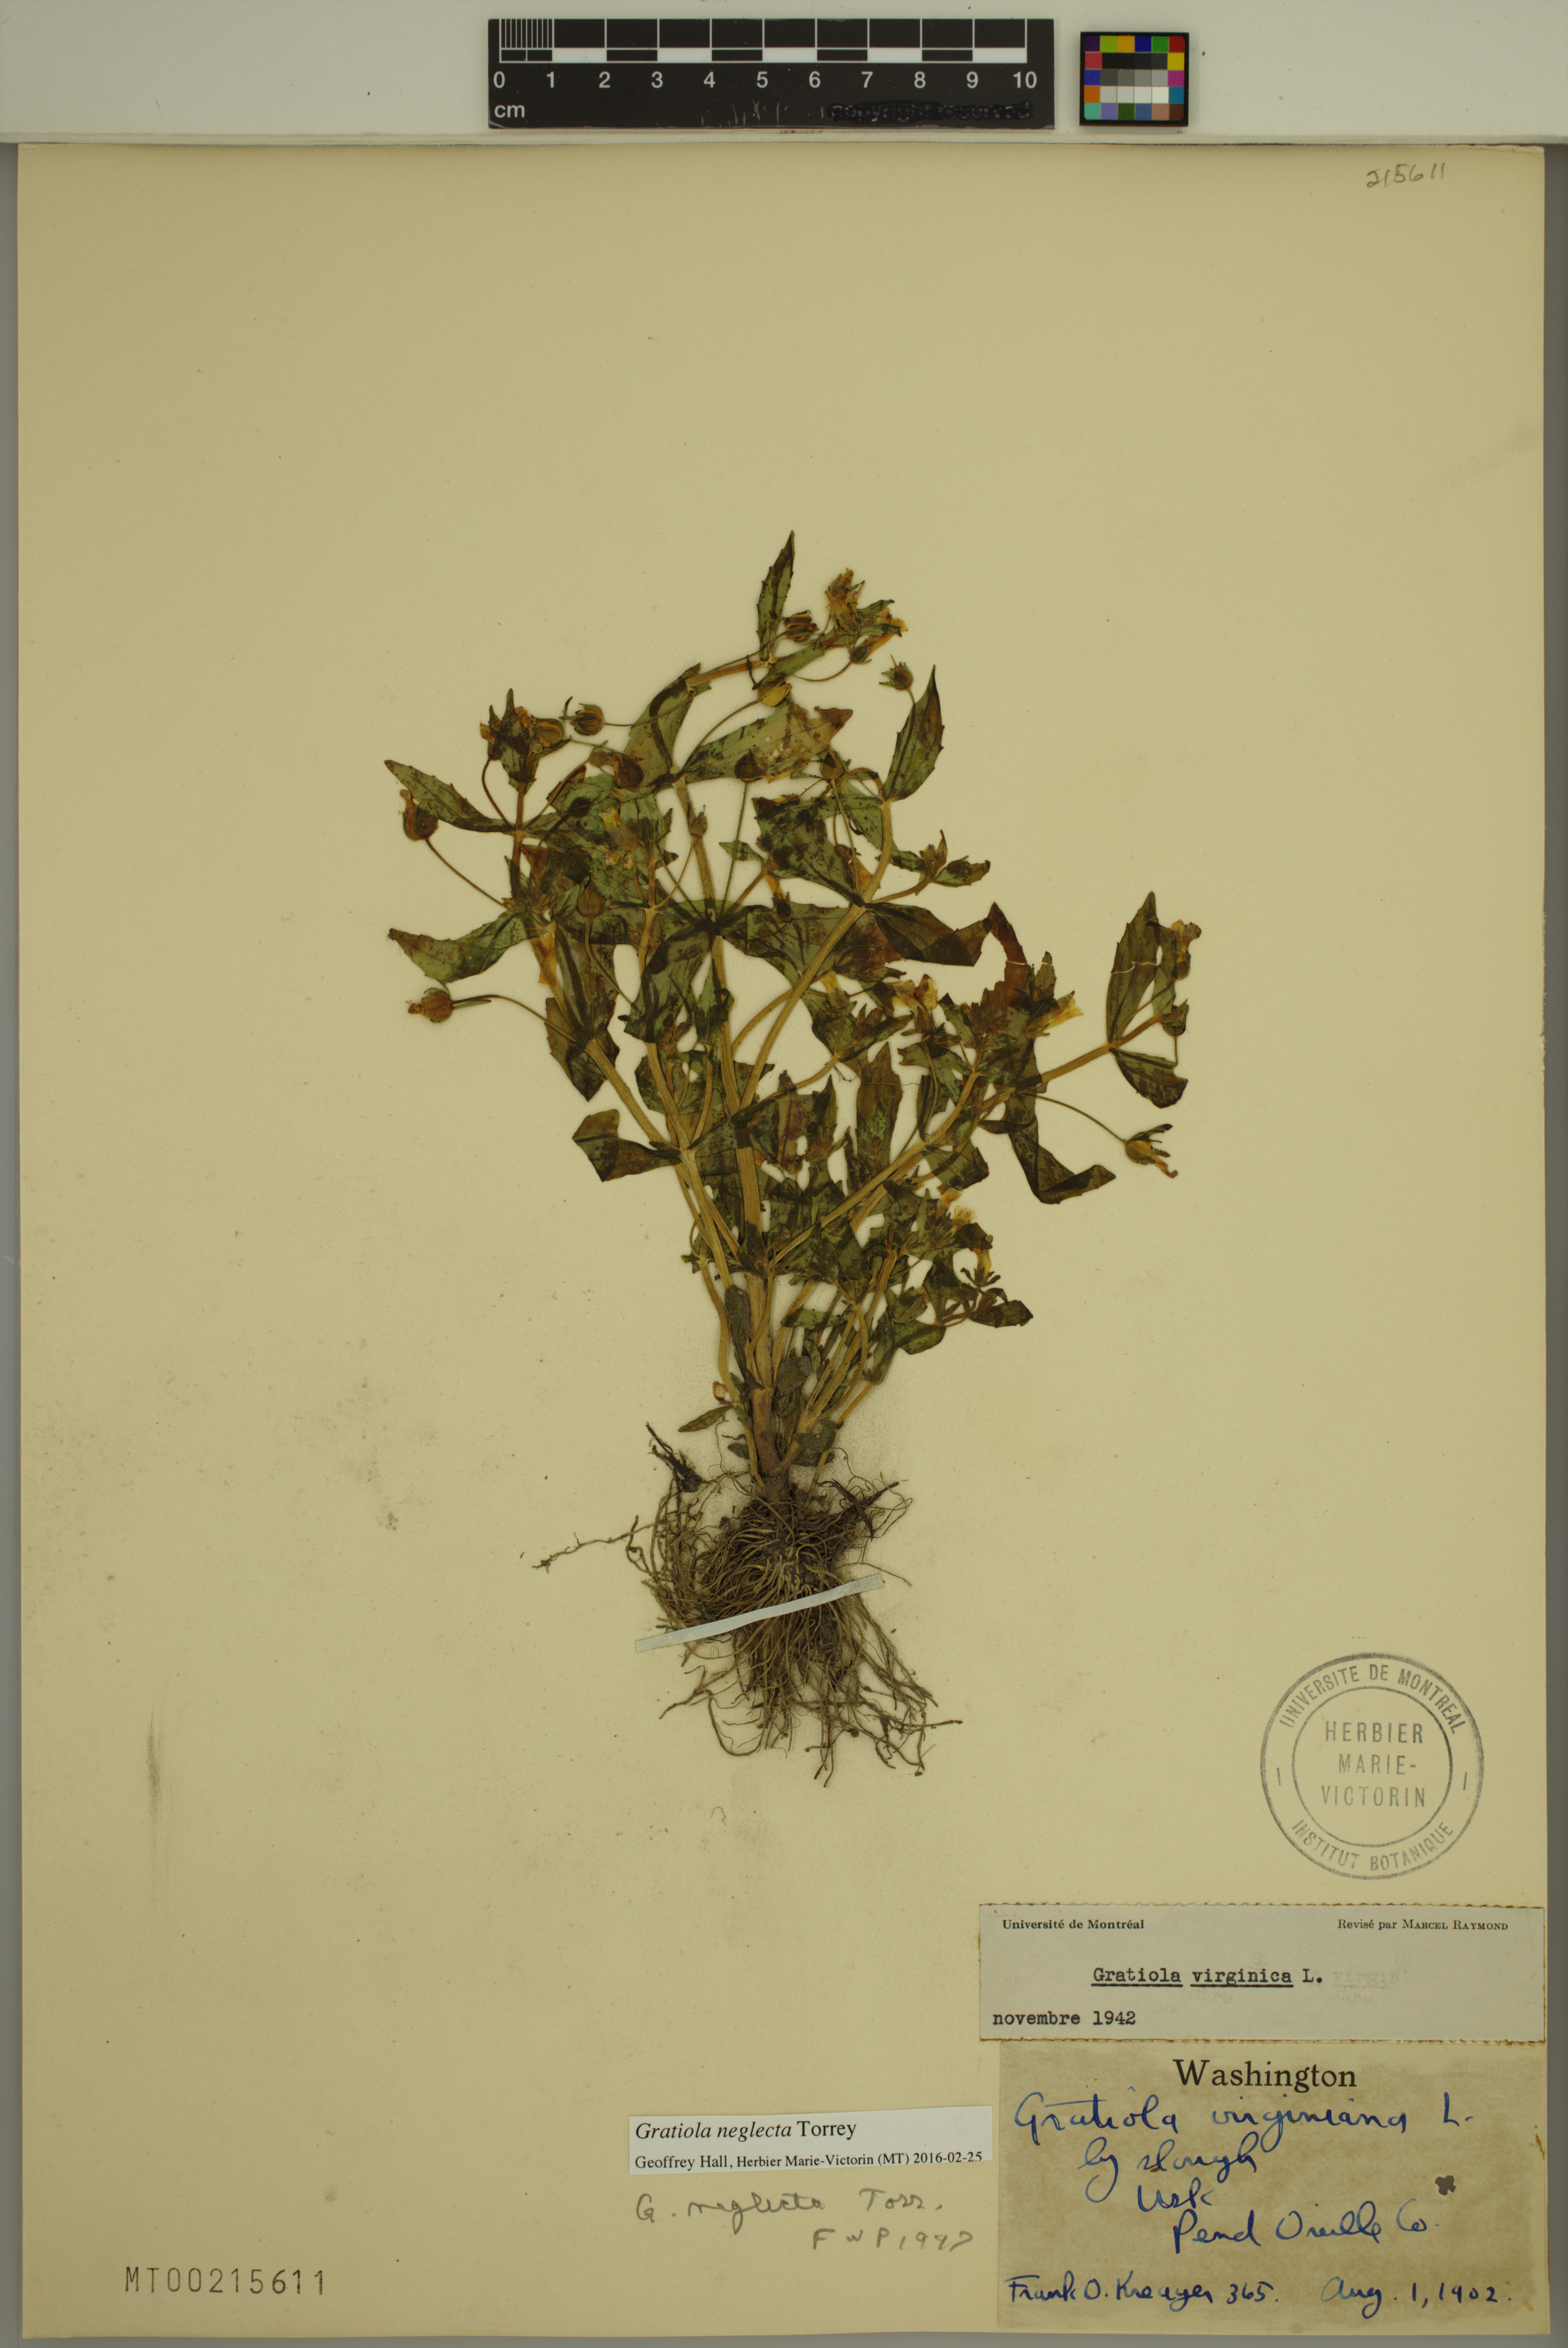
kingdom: Plantae
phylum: Tracheophyta
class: Magnoliopsida
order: Lamiales
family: Plantaginaceae
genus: Gratiola
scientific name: Gratiola neglecta
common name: American hedge-hyssop
